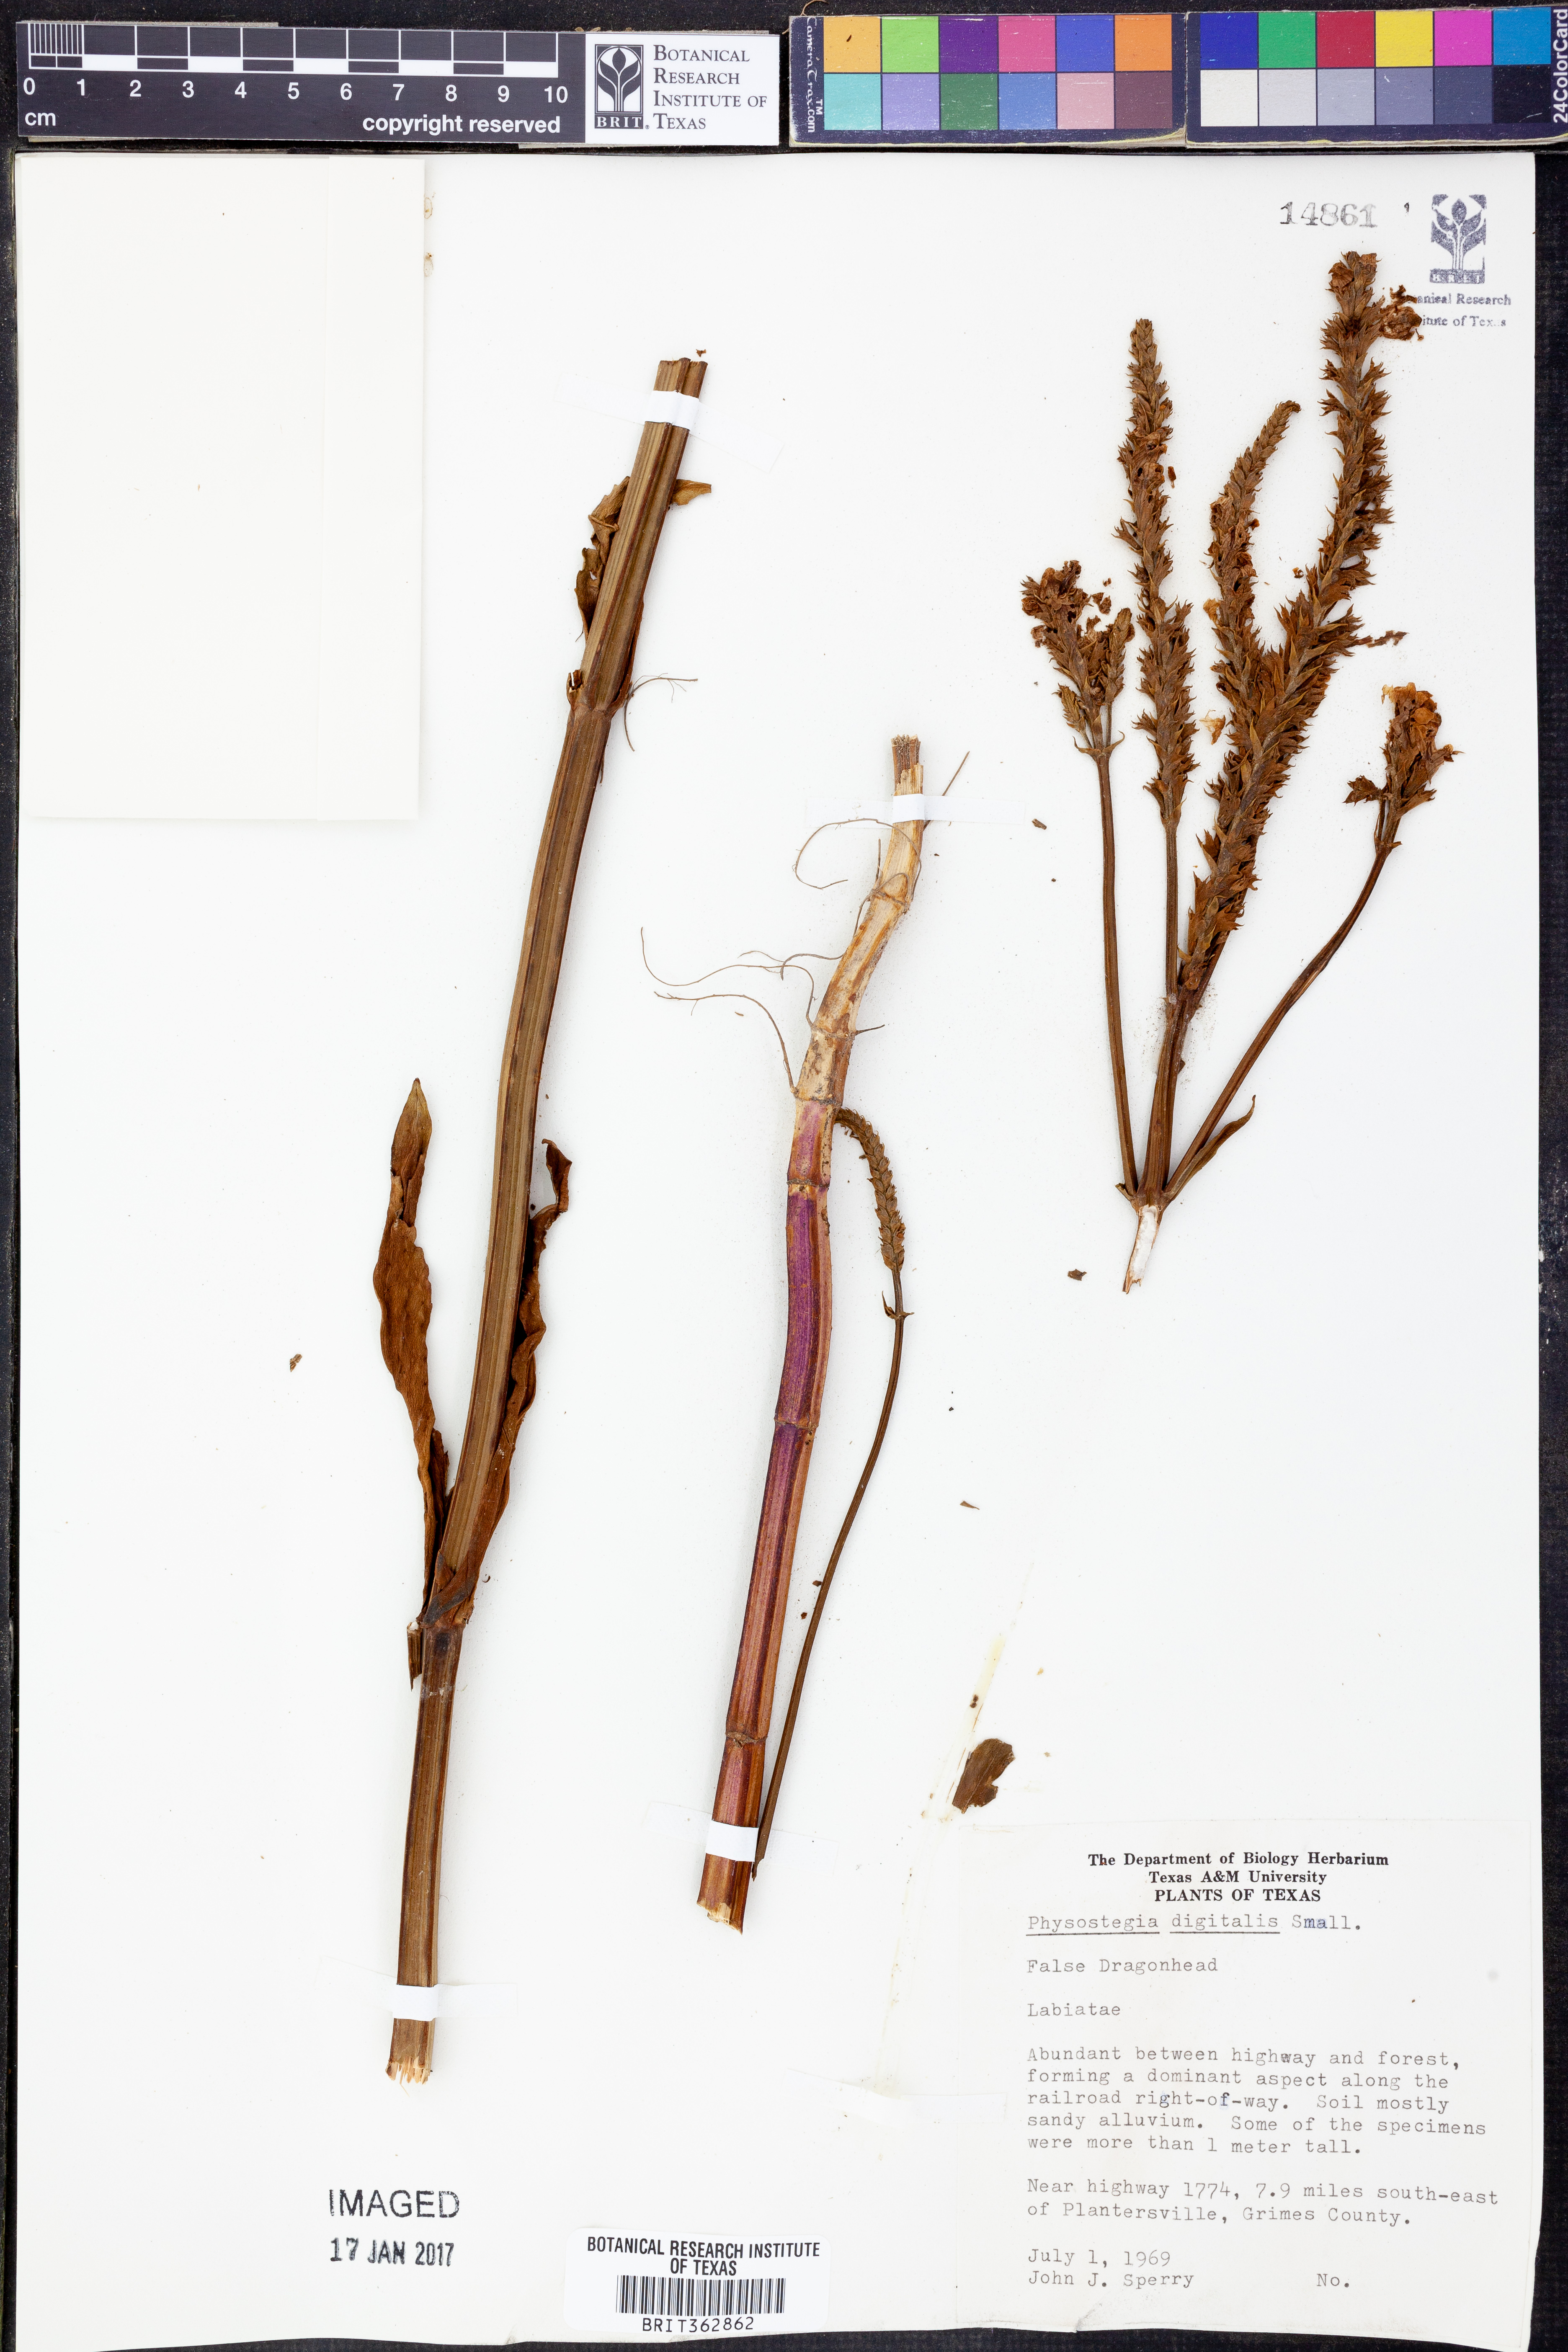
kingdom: Plantae
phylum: Tracheophyta
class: Magnoliopsida
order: Lamiales
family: Lamiaceae
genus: Physostegia
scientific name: Physostegia digitalis
